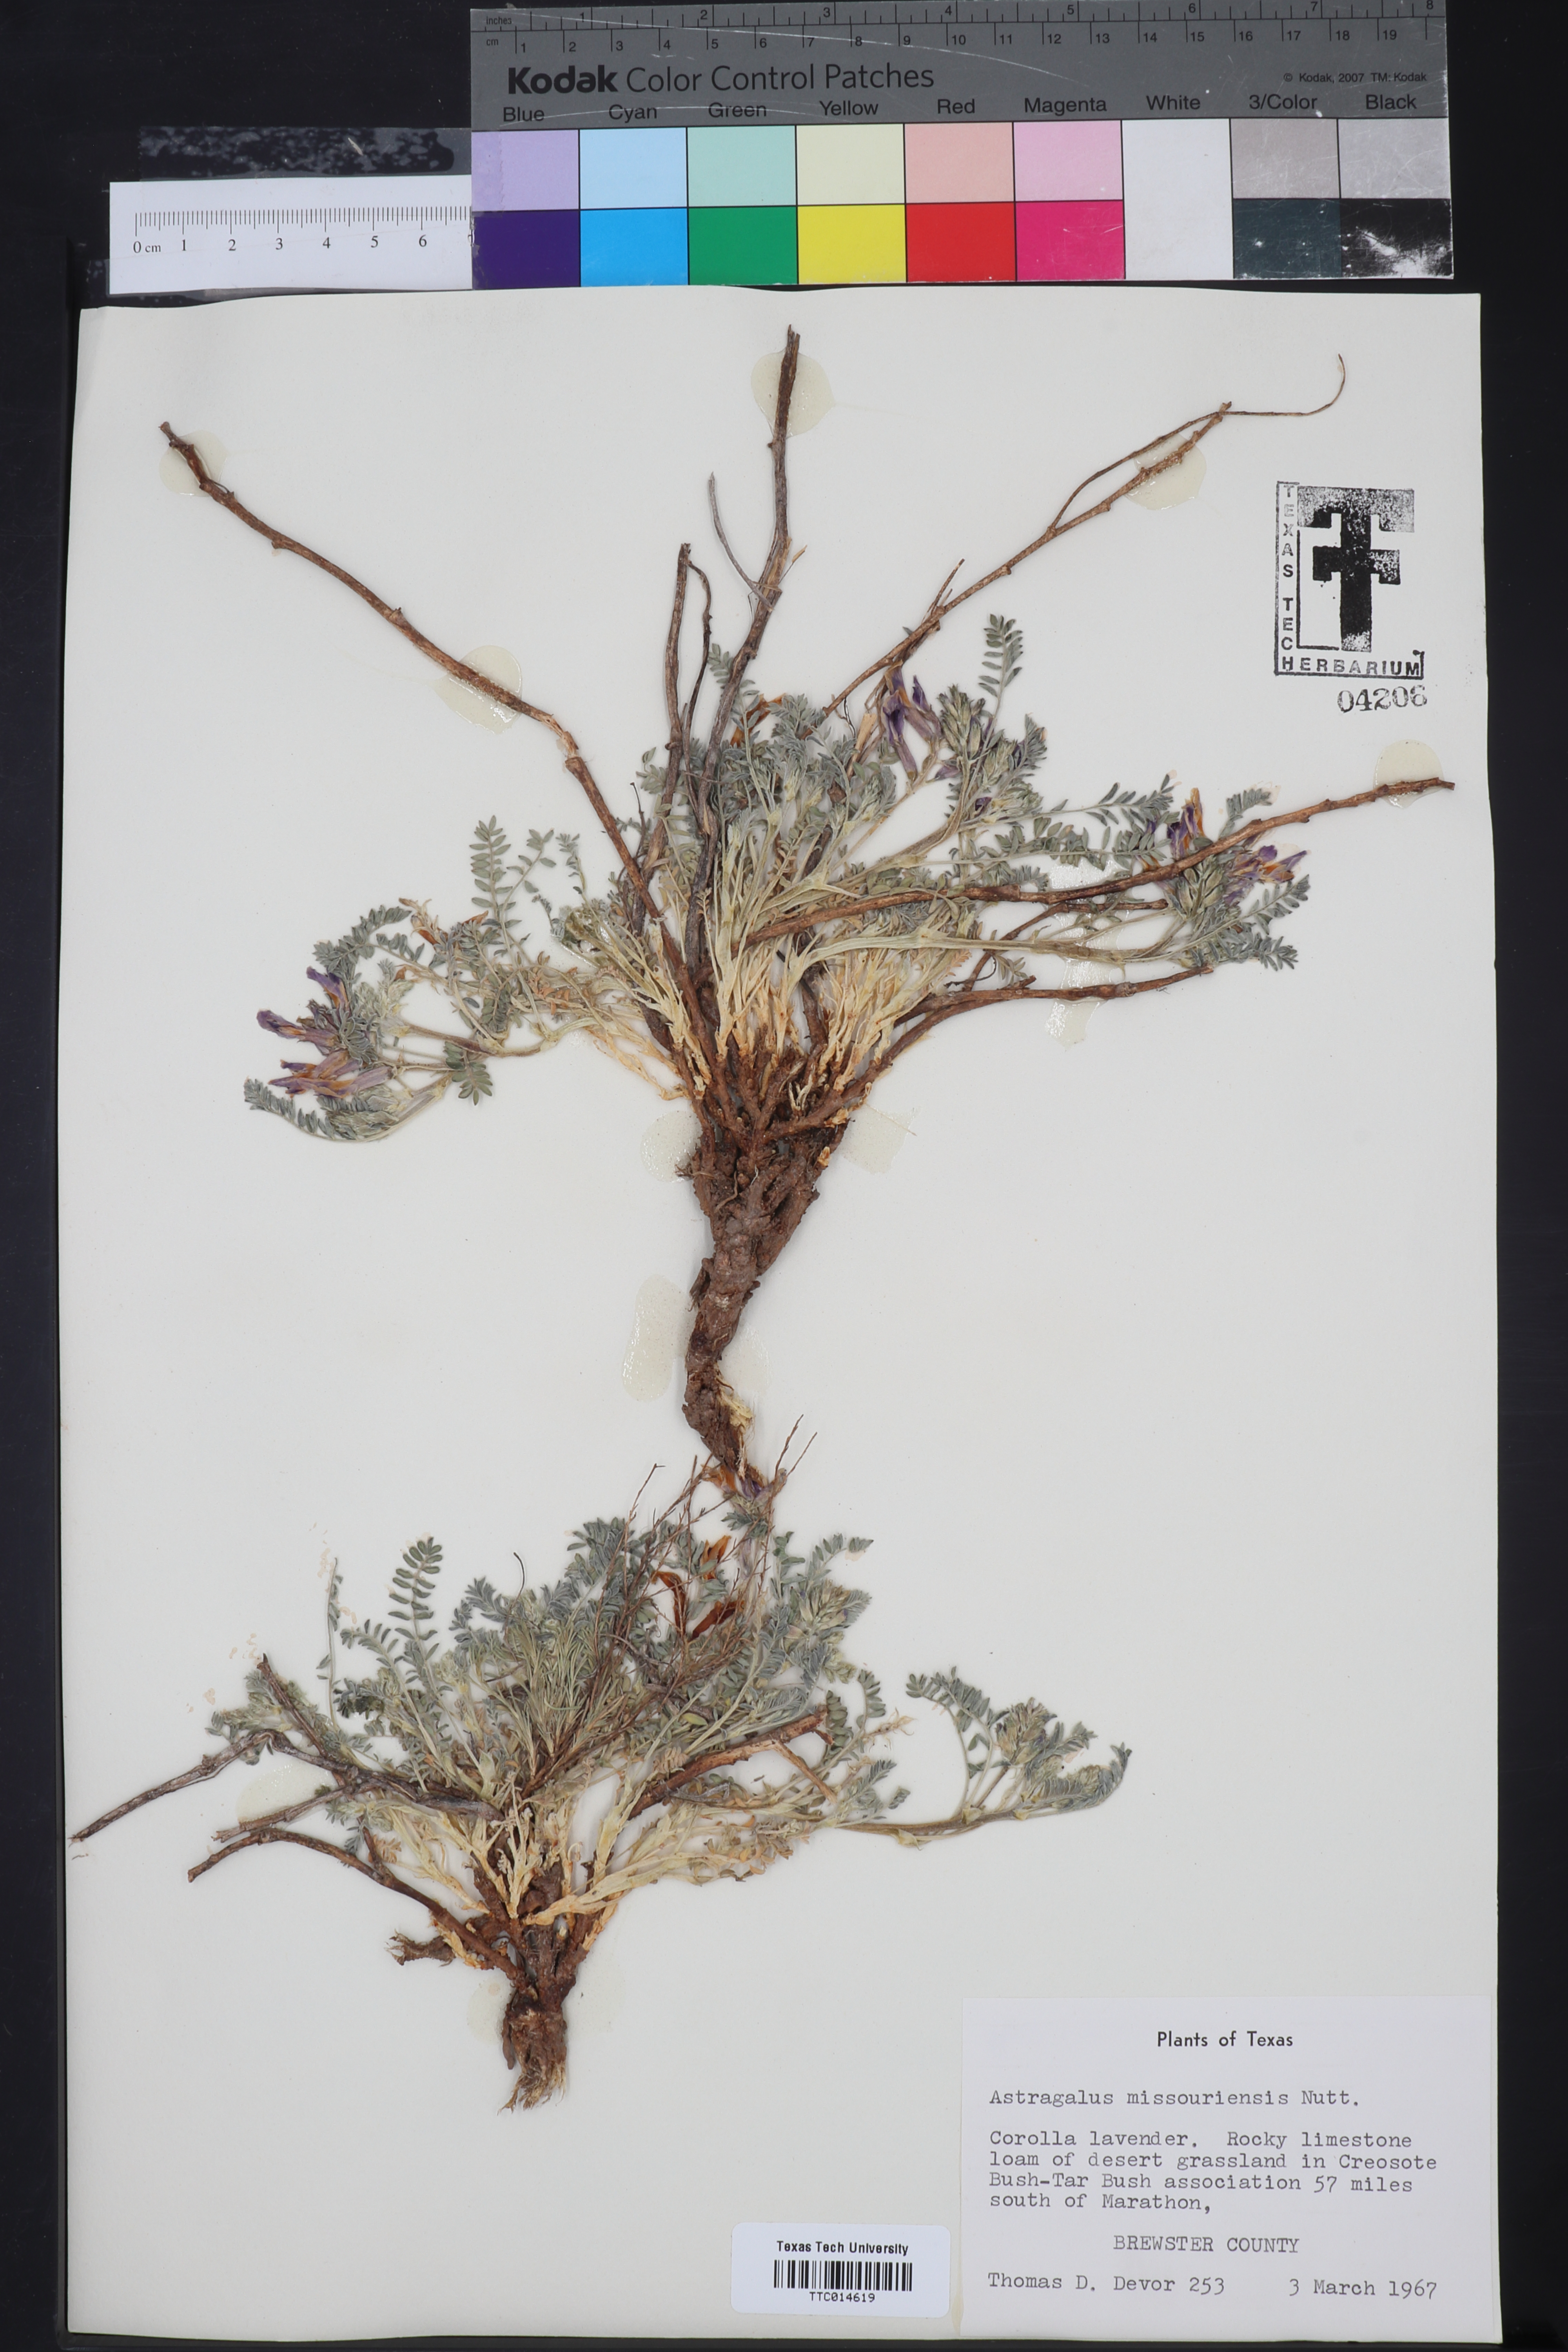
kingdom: Plantae
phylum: Tracheophyta
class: Magnoliopsida
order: Fabales
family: Fabaceae
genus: Astragalus
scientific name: Astragalus missouriensis
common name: Missouri milk-vetch
